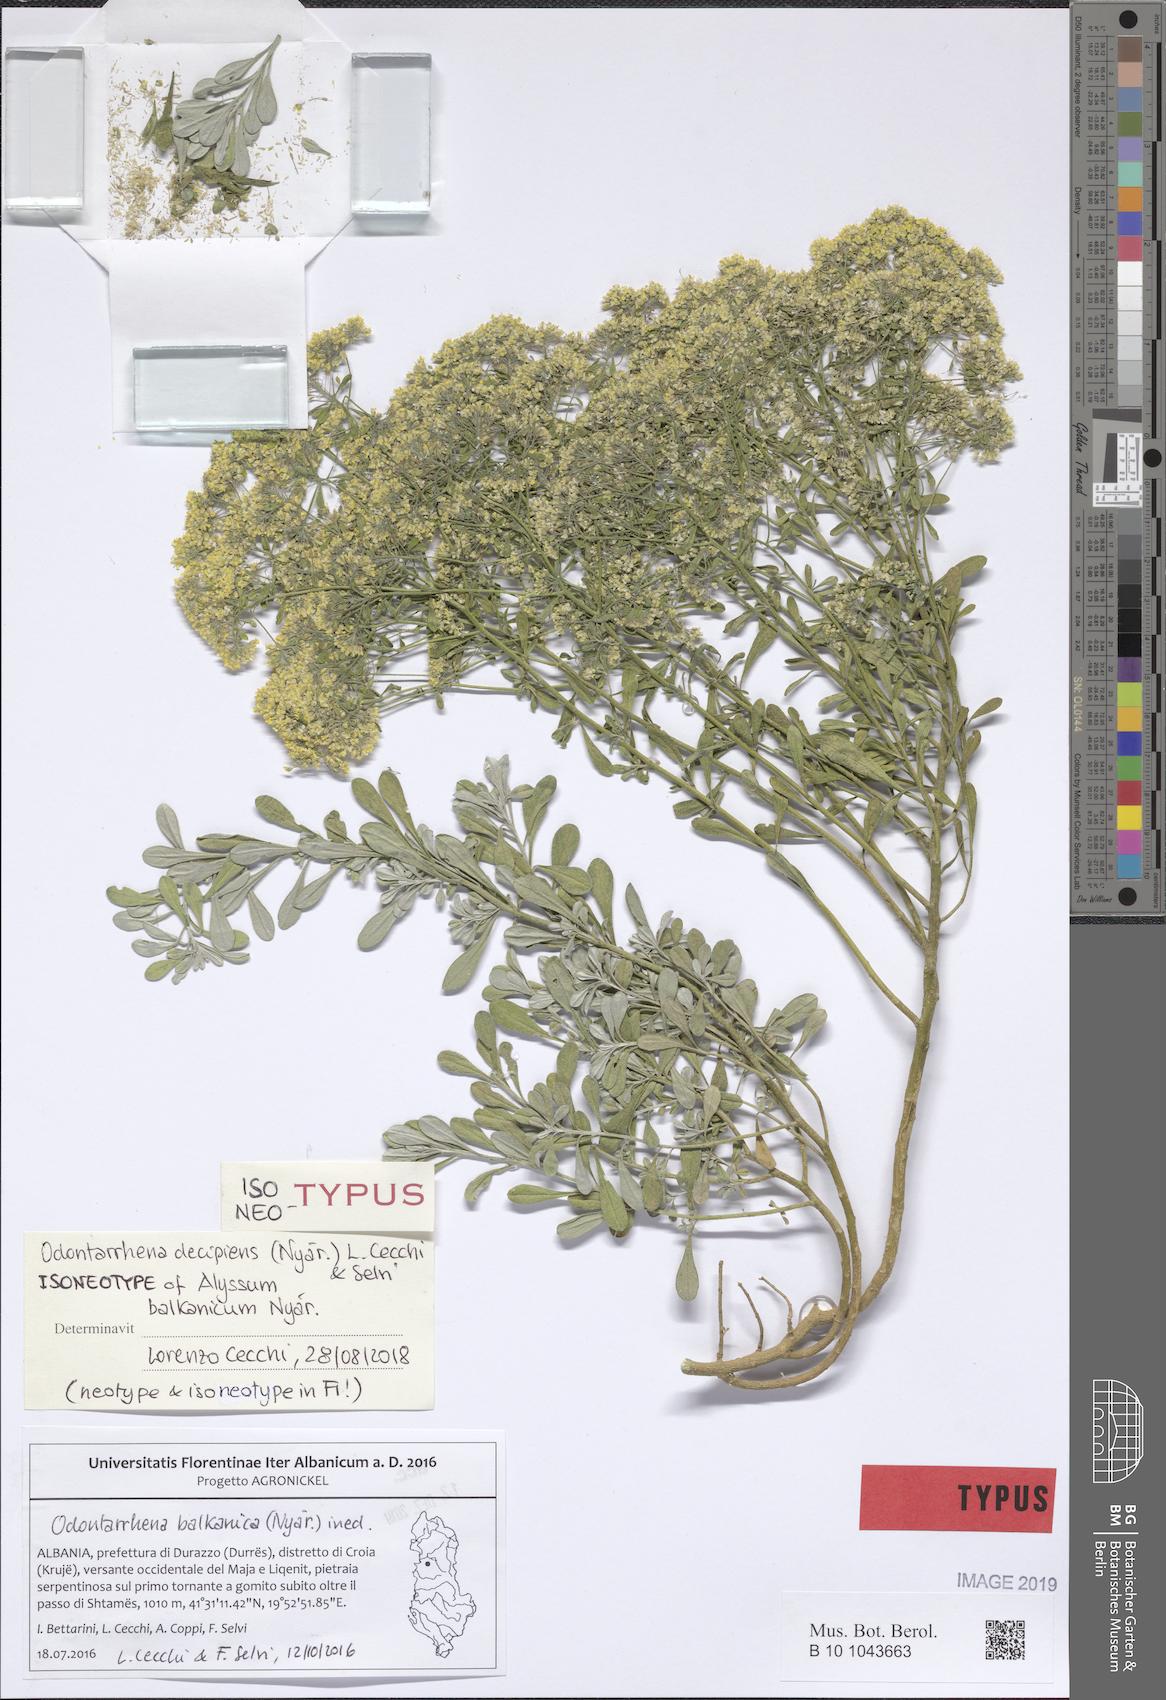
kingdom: Plantae
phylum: Tracheophyta
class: Magnoliopsida
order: Brassicales
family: Brassicaceae
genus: Odontarrhena
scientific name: Odontarrhena muralis
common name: Rock alyssum
